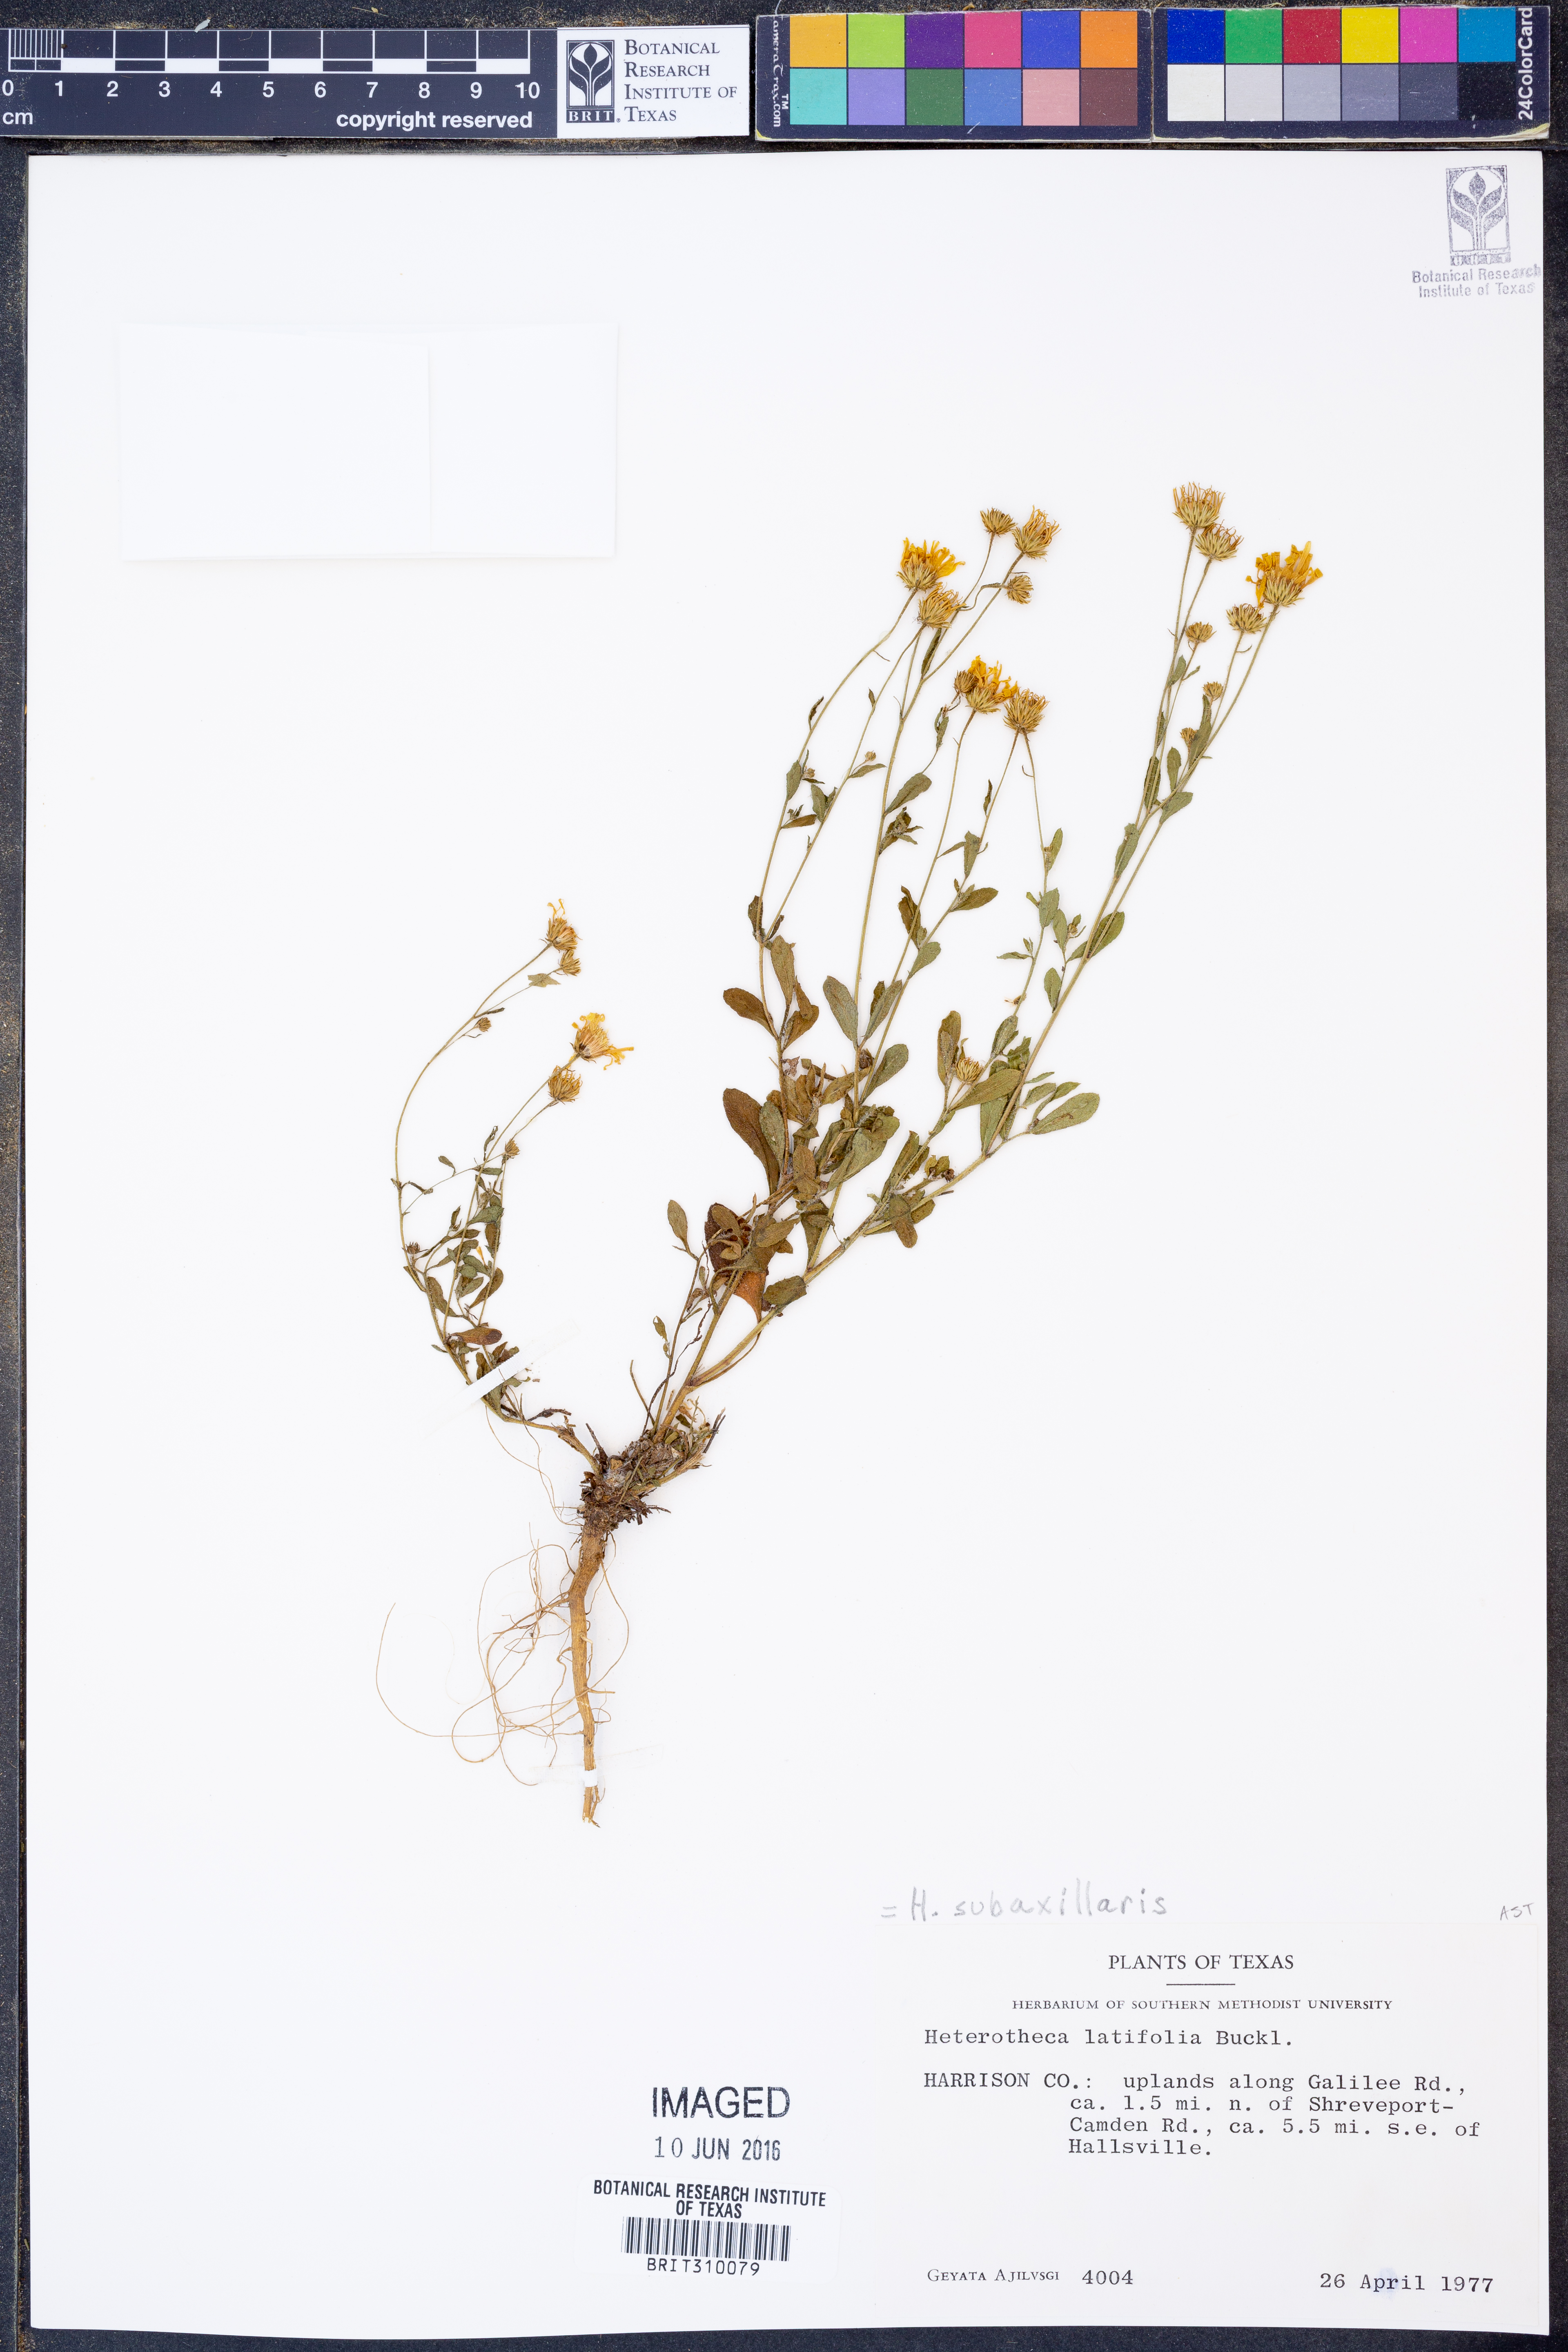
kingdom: Plantae
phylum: Tracheophyta
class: Magnoliopsida
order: Asterales
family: Asteraceae
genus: Heterotheca
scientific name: Heterotheca subaxillaris
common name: Camphorweed
